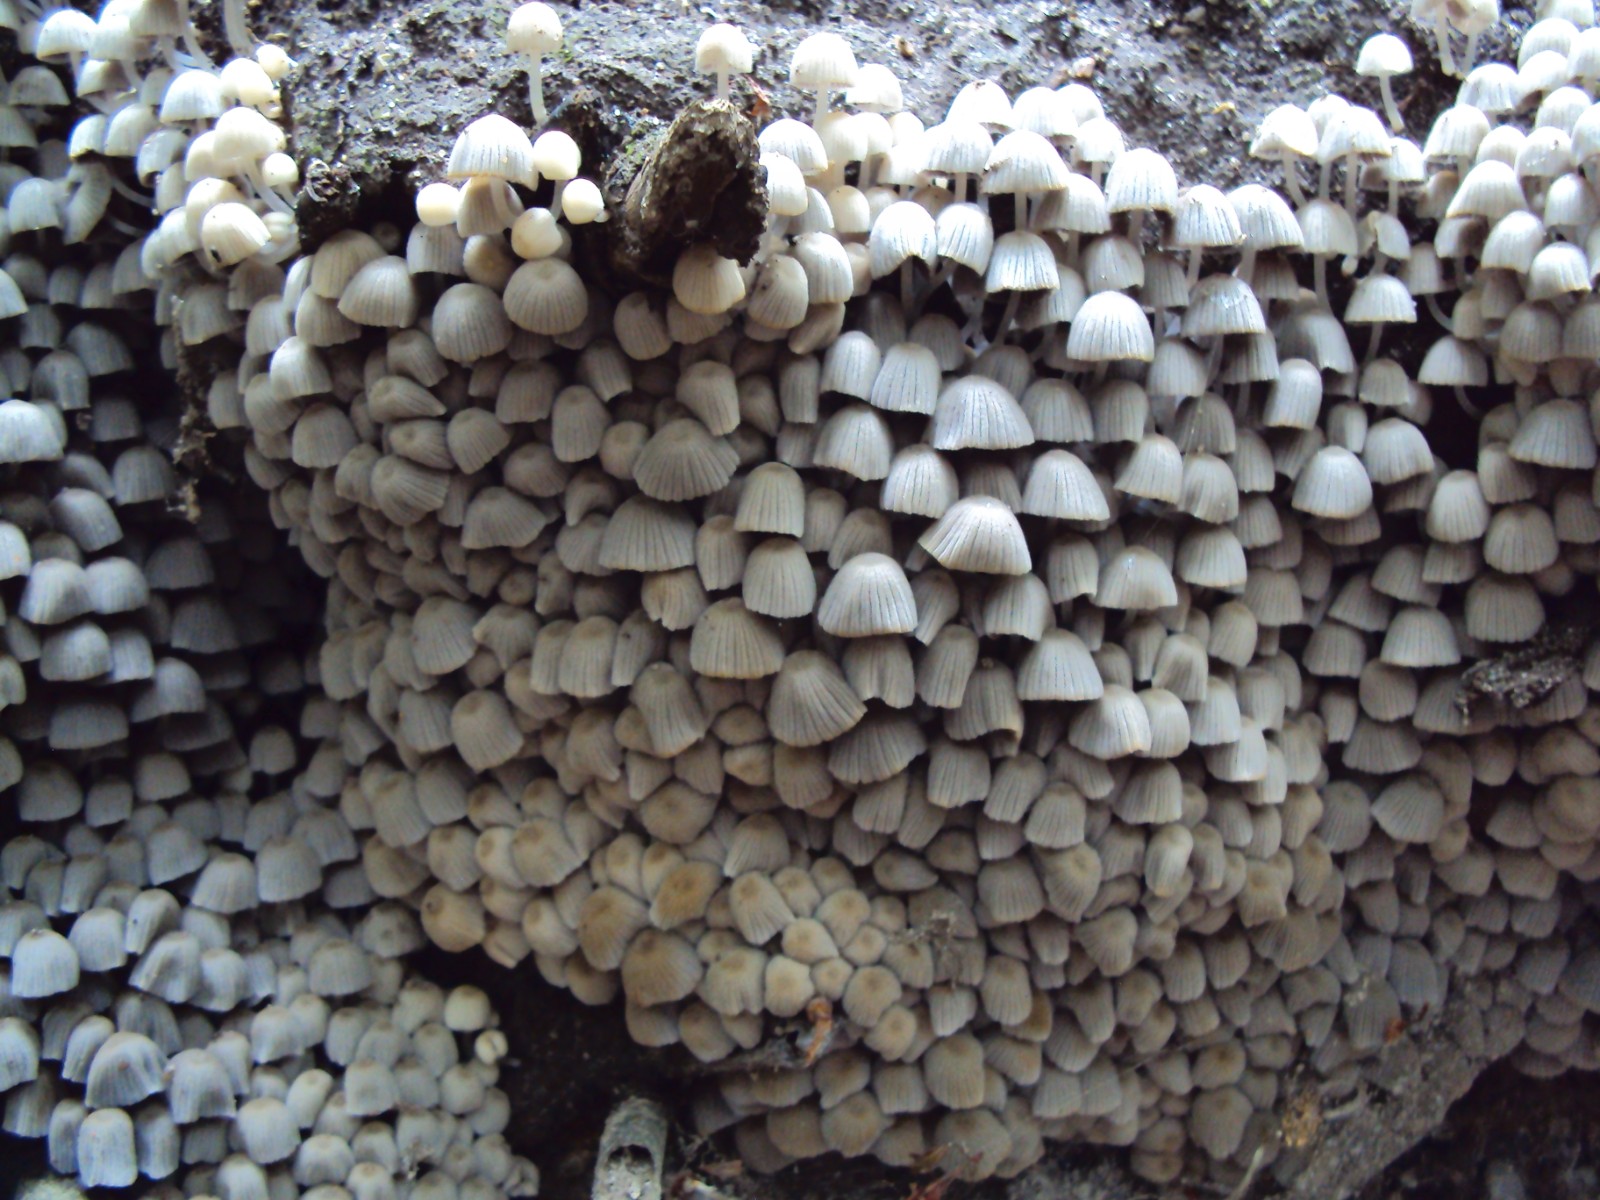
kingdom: Fungi
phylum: Basidiomycota
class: Agaricomycetes
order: Agaricales
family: Psathyrellaceae
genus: Coprinellus
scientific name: Coprinellus disseminatus
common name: bredsået blækhat
